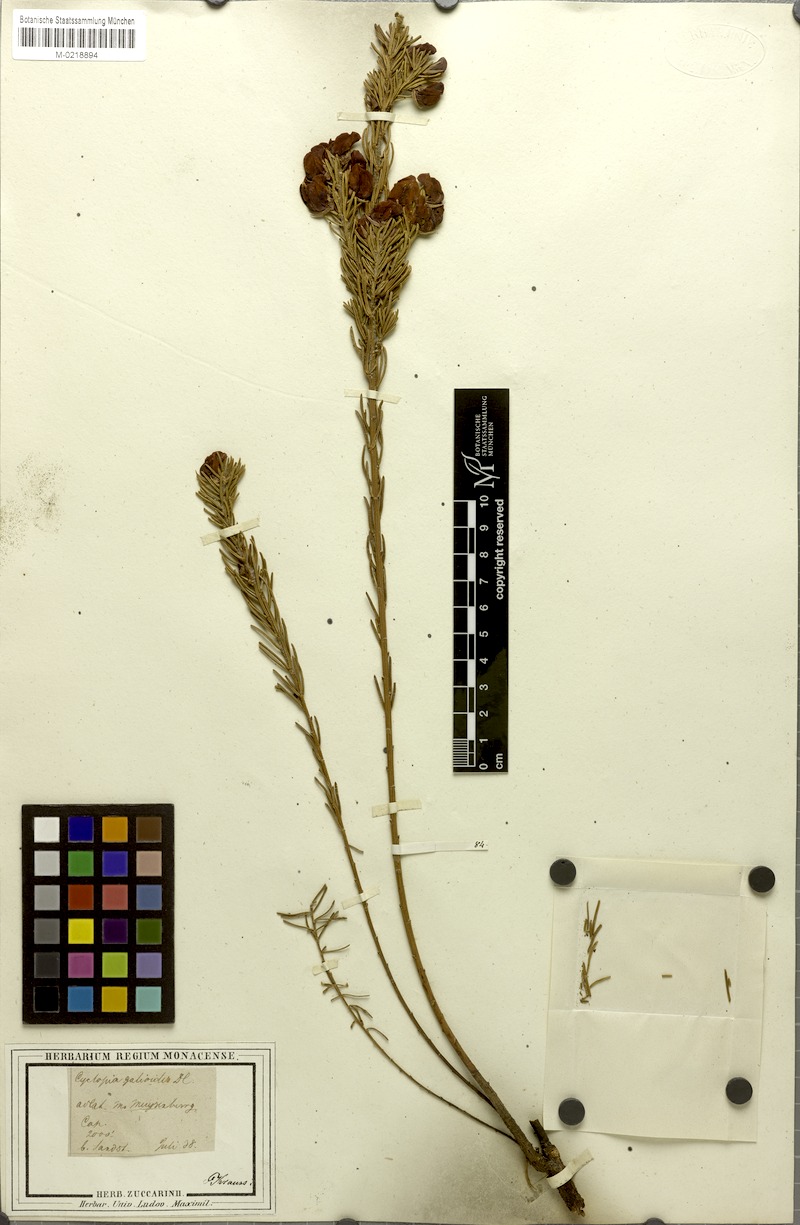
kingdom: Plantae
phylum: Tracheophyta
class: Magnoliopsida
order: Fabales
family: Fabaceae
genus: Cyclopia
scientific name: Cyclopia galioides
